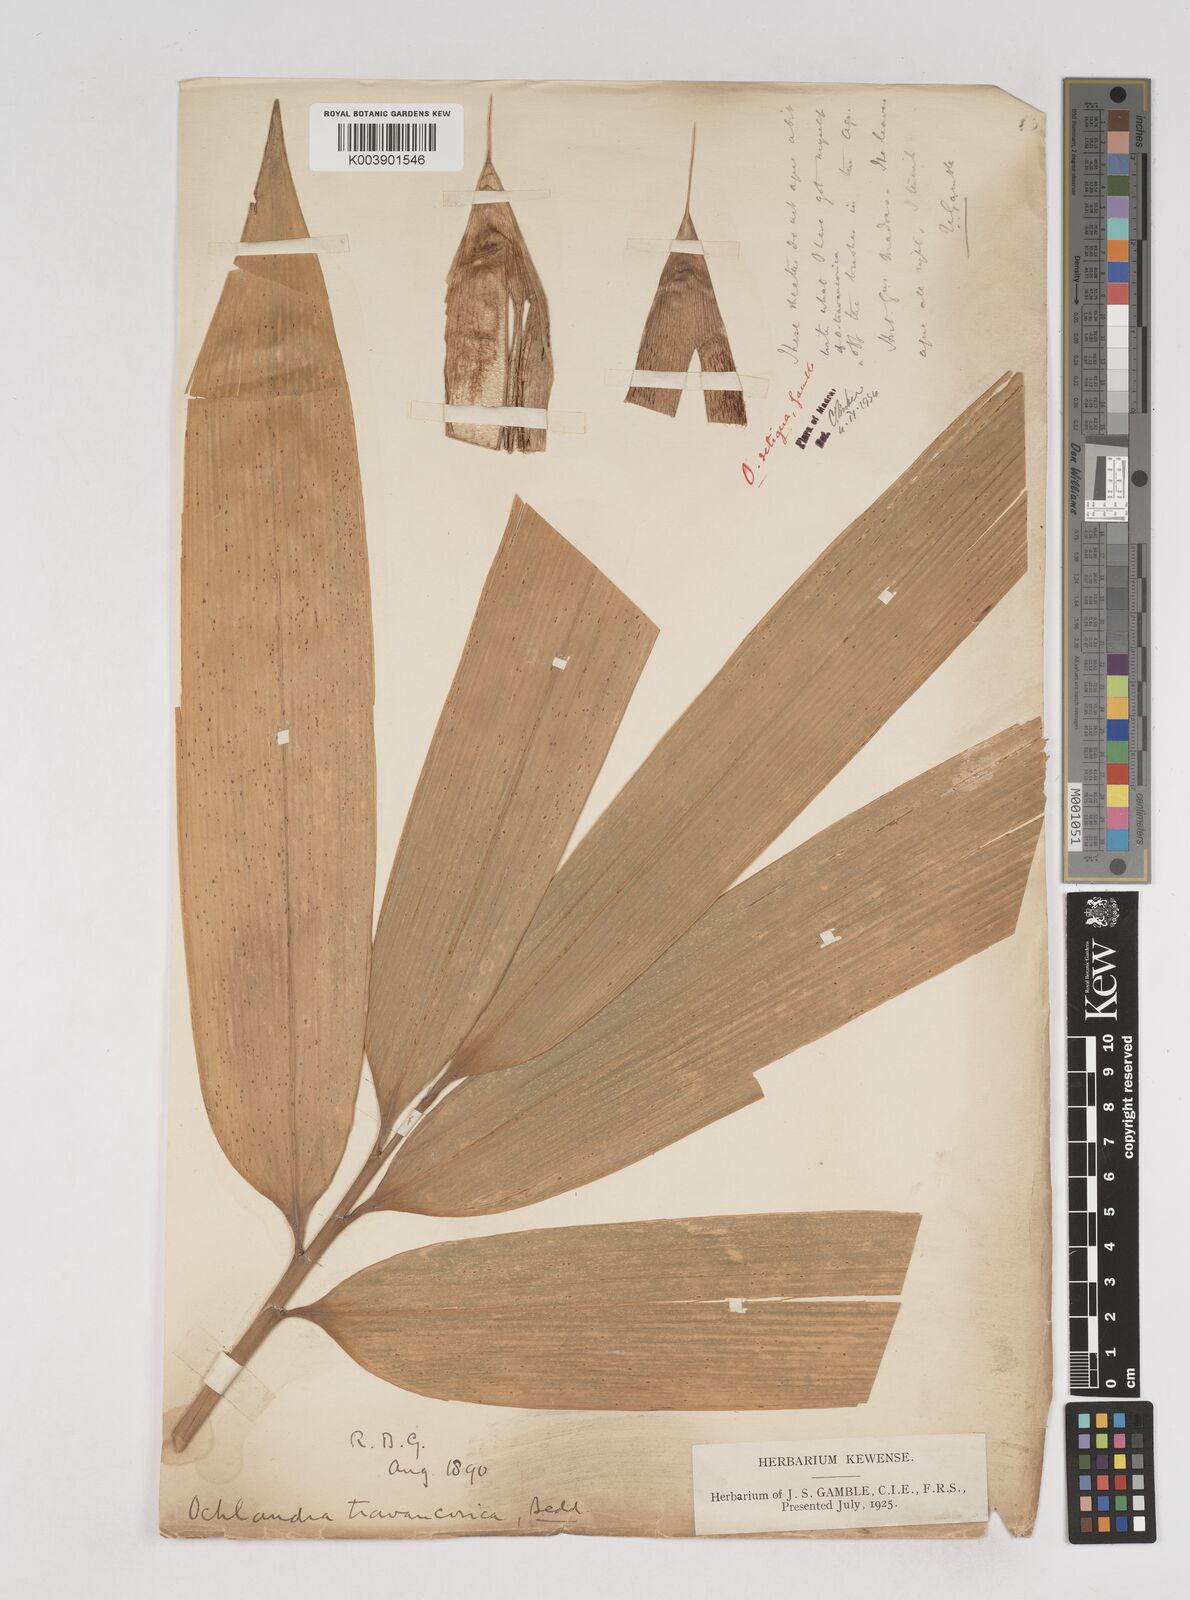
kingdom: Plantae
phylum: Tracheophyta
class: Liliopsida
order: Poales
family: Poaceae
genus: Ochlandra
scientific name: Ochlandra setigera
